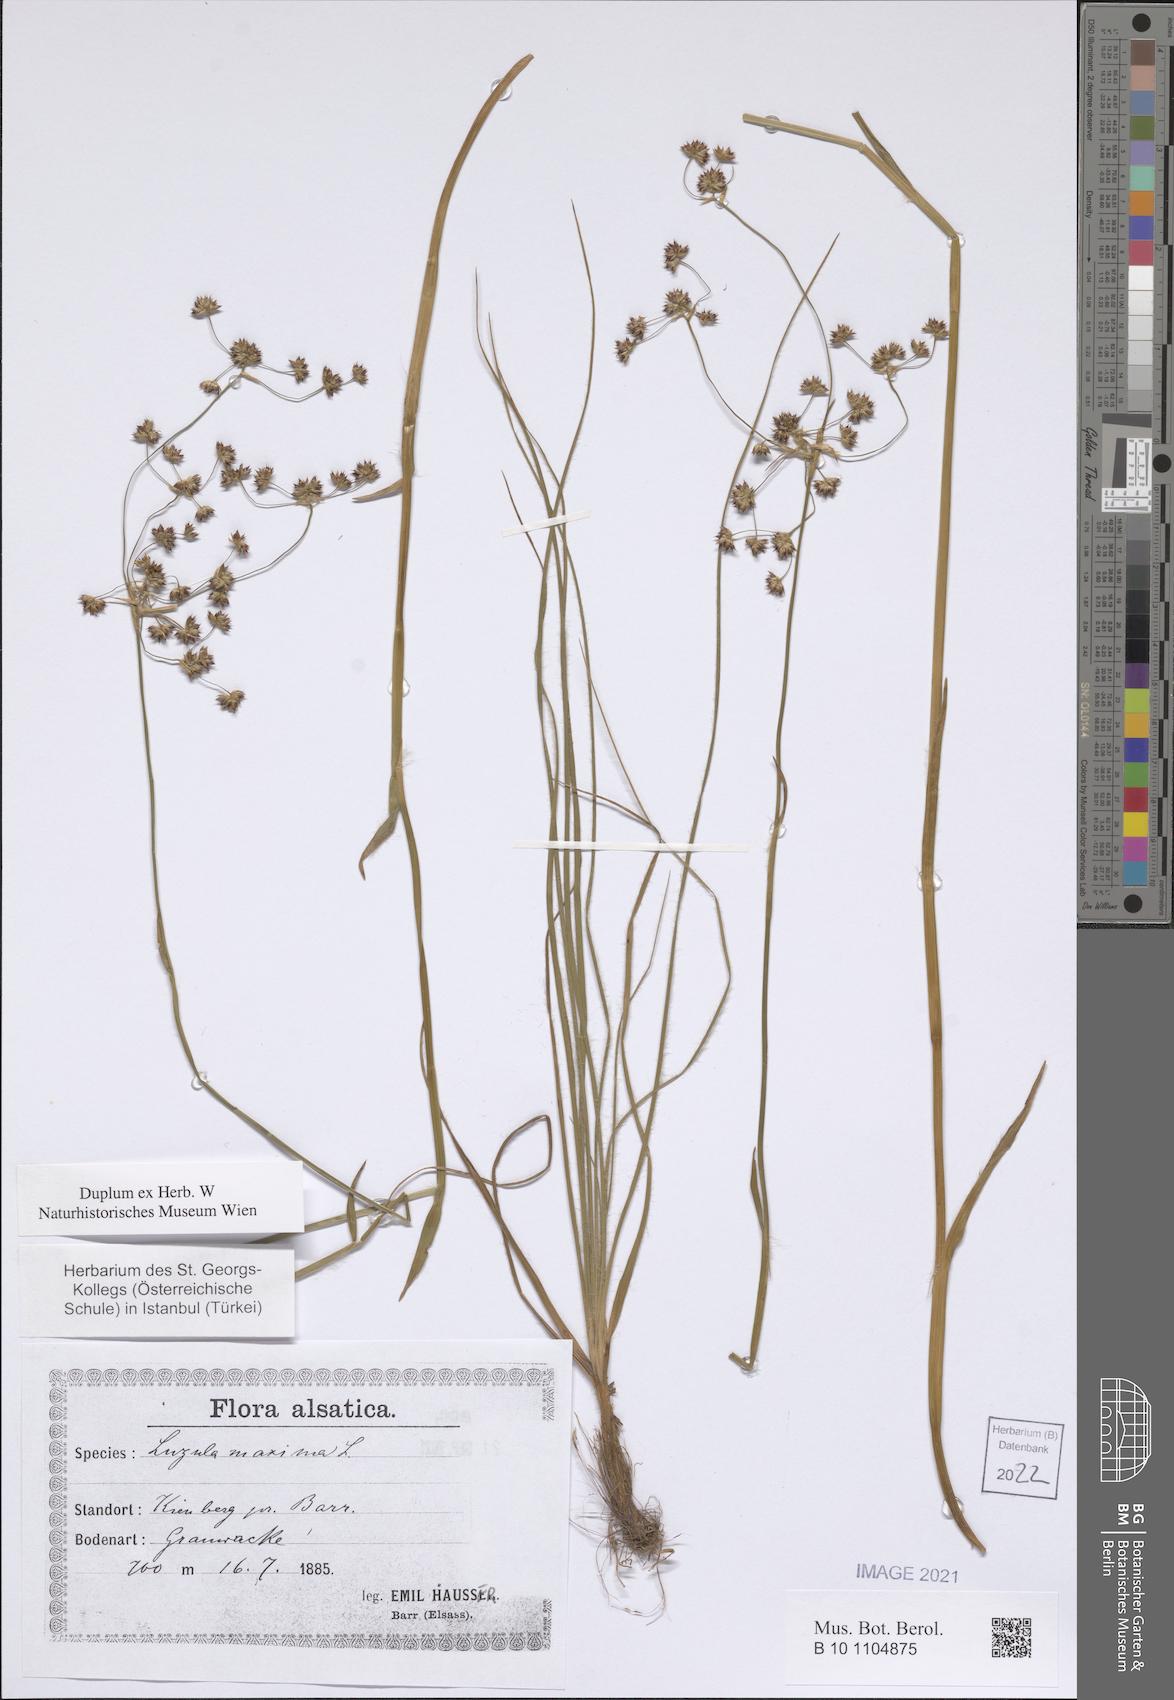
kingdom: Plantae
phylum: Tracheophyta
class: Liliopsida
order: Poales
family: Juncaceae
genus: Luzula
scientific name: Luzula sylvatica
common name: Great wood-rush
